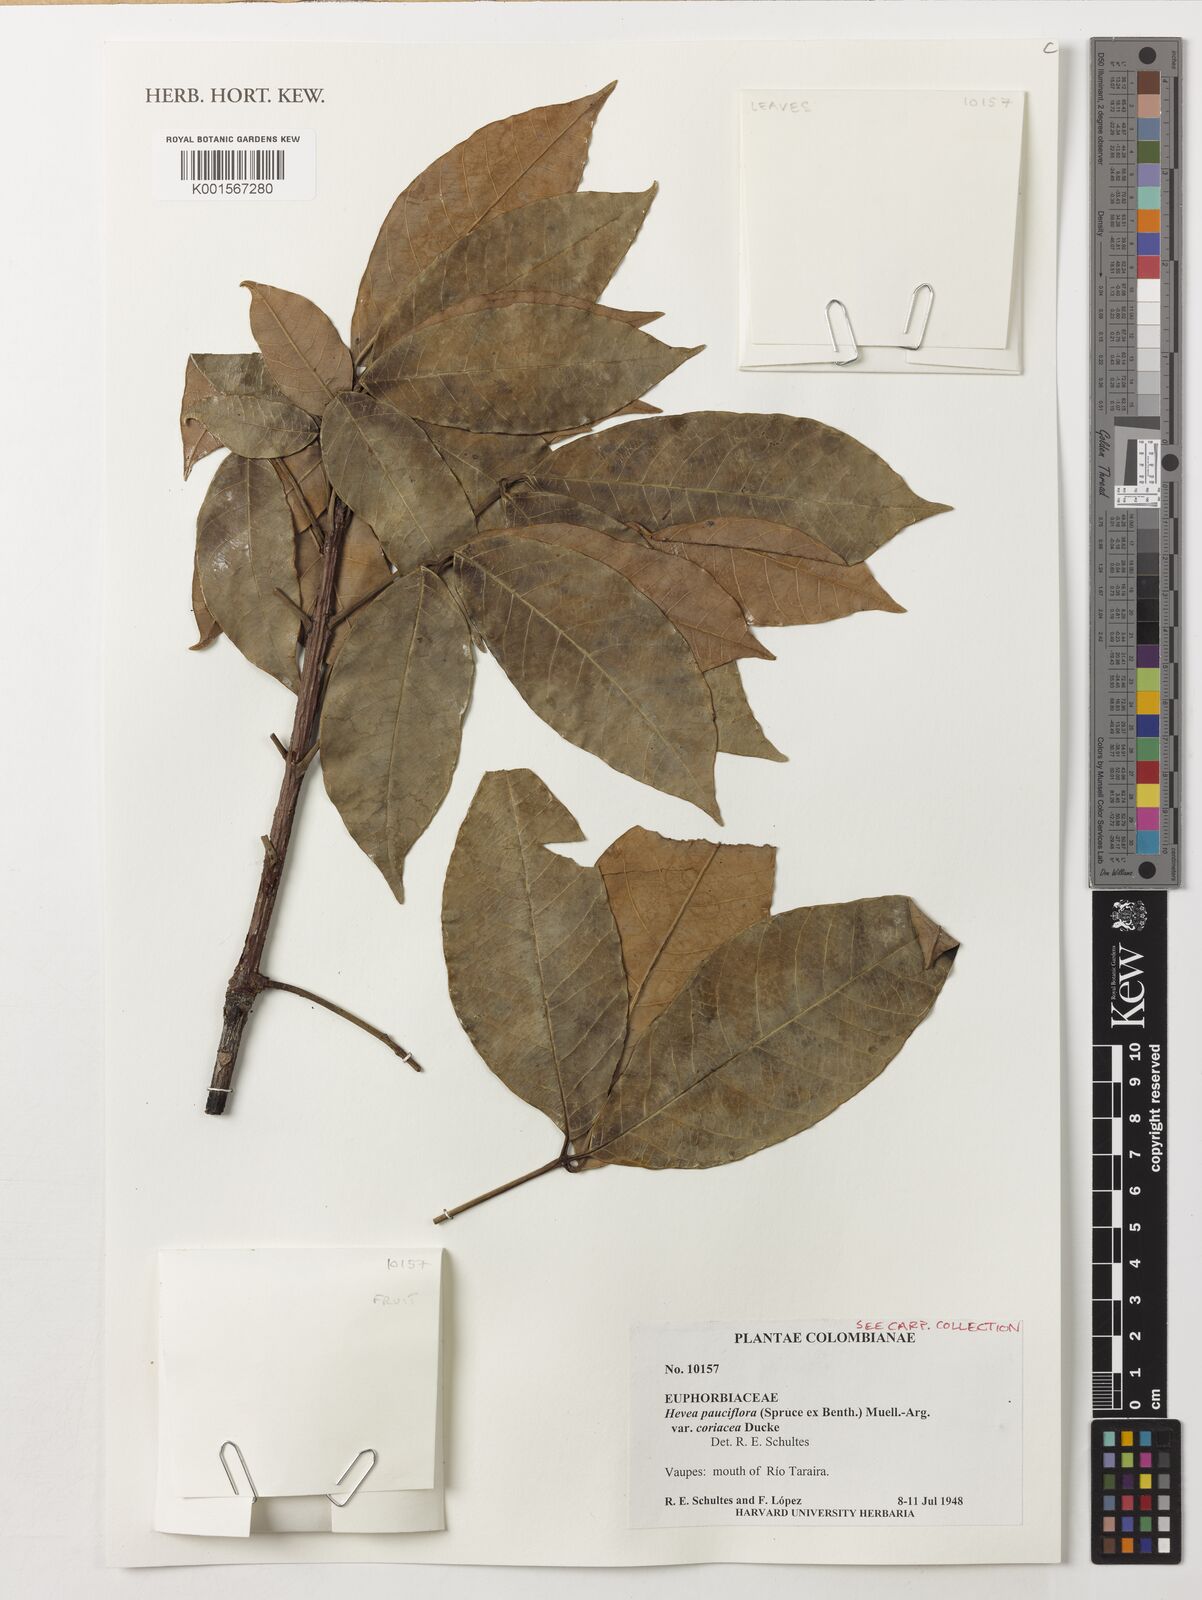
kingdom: Plantae
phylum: Tracheophyta
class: Magnoliopsida
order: Malpighiales
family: Euphorbiaceae
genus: Hevea
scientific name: Hevea pauciflora
